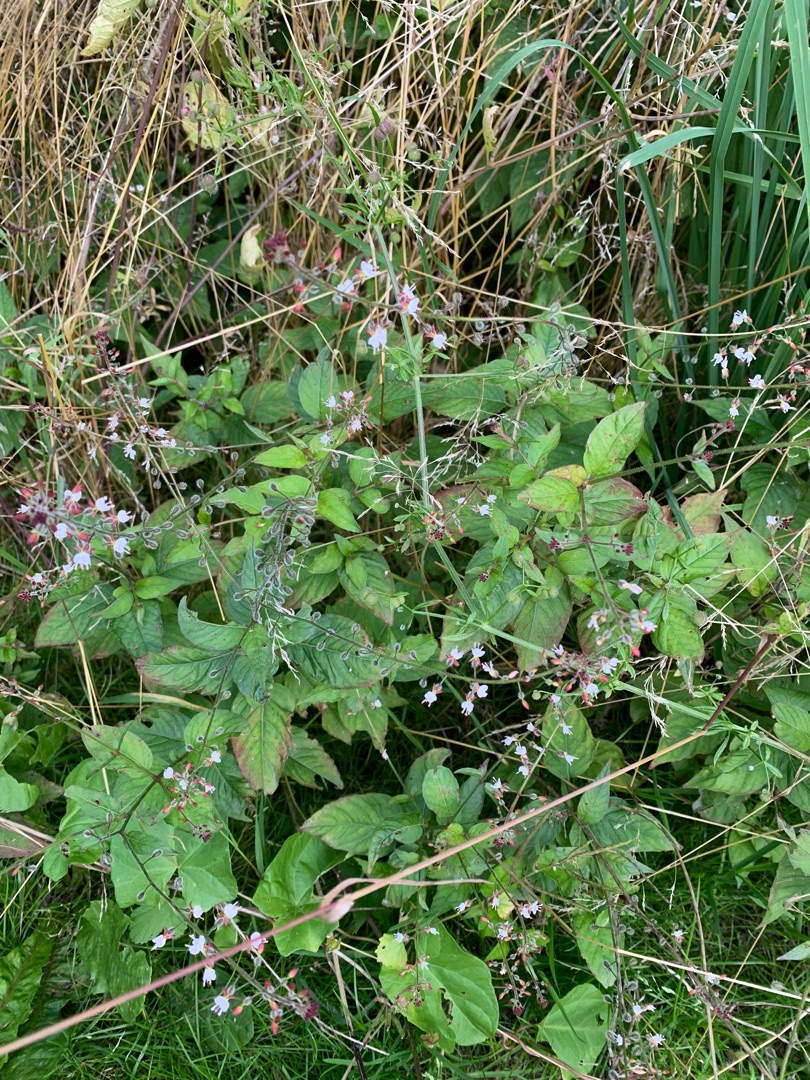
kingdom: Plantae
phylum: Tracheophyta
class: Magnoliopsida
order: Myrtales
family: Onagraceae
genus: Circaea
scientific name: Circaea lutetiana
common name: Dunet steffensurt
